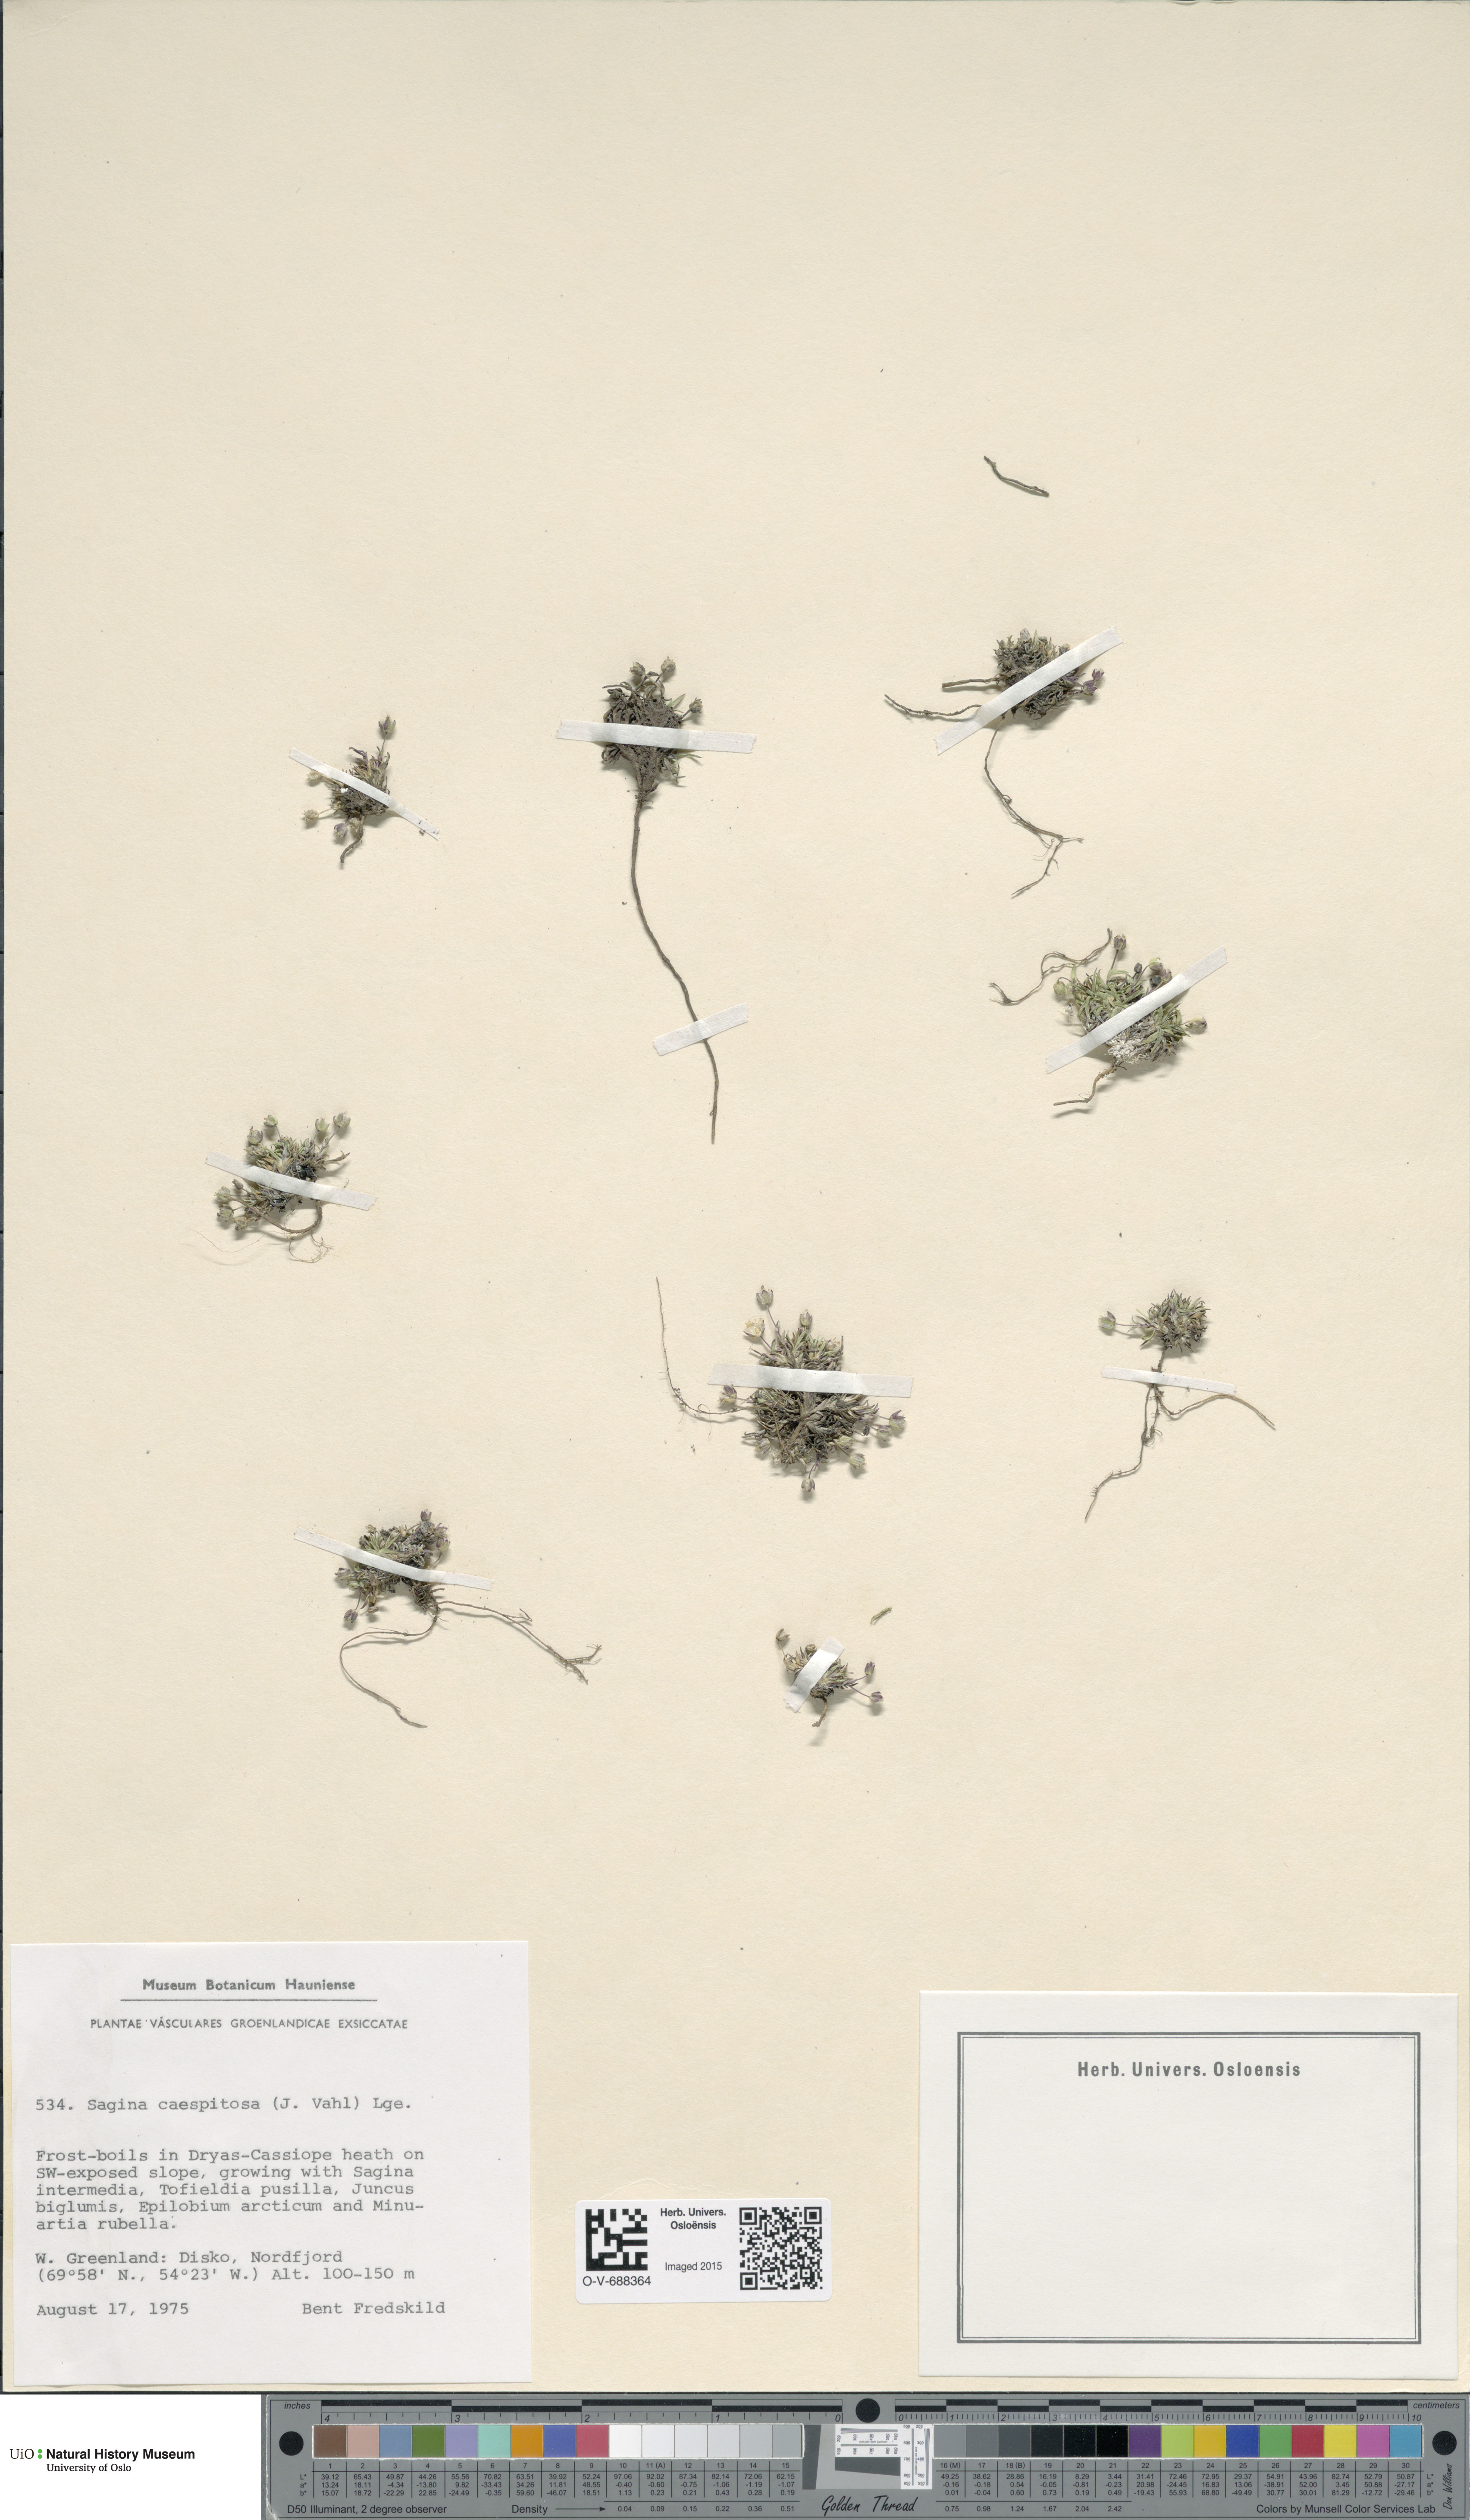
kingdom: Plantae
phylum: Tracheophyta
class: Magnoliopsida
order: Caryophyllales
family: Caryophyllaceae
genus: Sagina
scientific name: Sagina caespitosa
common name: Tufted pearlwort
